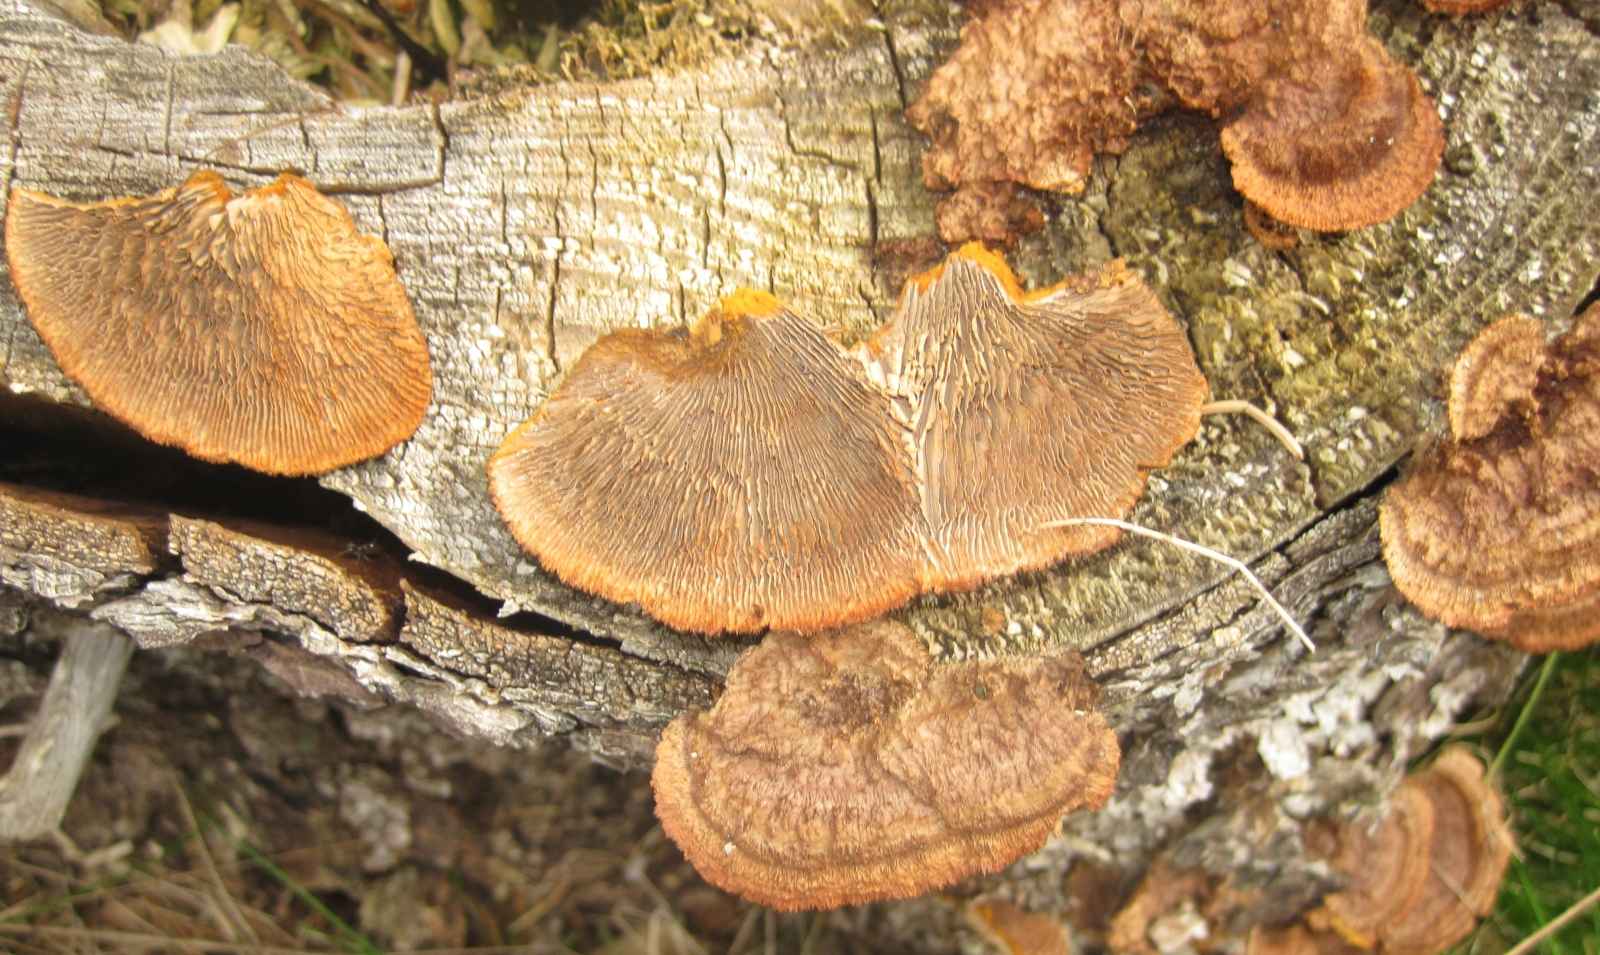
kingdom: Fungi
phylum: Basidiomycota
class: Agaricomycetes
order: Gloeophyllales
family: Gloeophyllaceae
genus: Gloeophyllum
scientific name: Gloeophyllum sepiarium
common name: fyrre-korkhat
